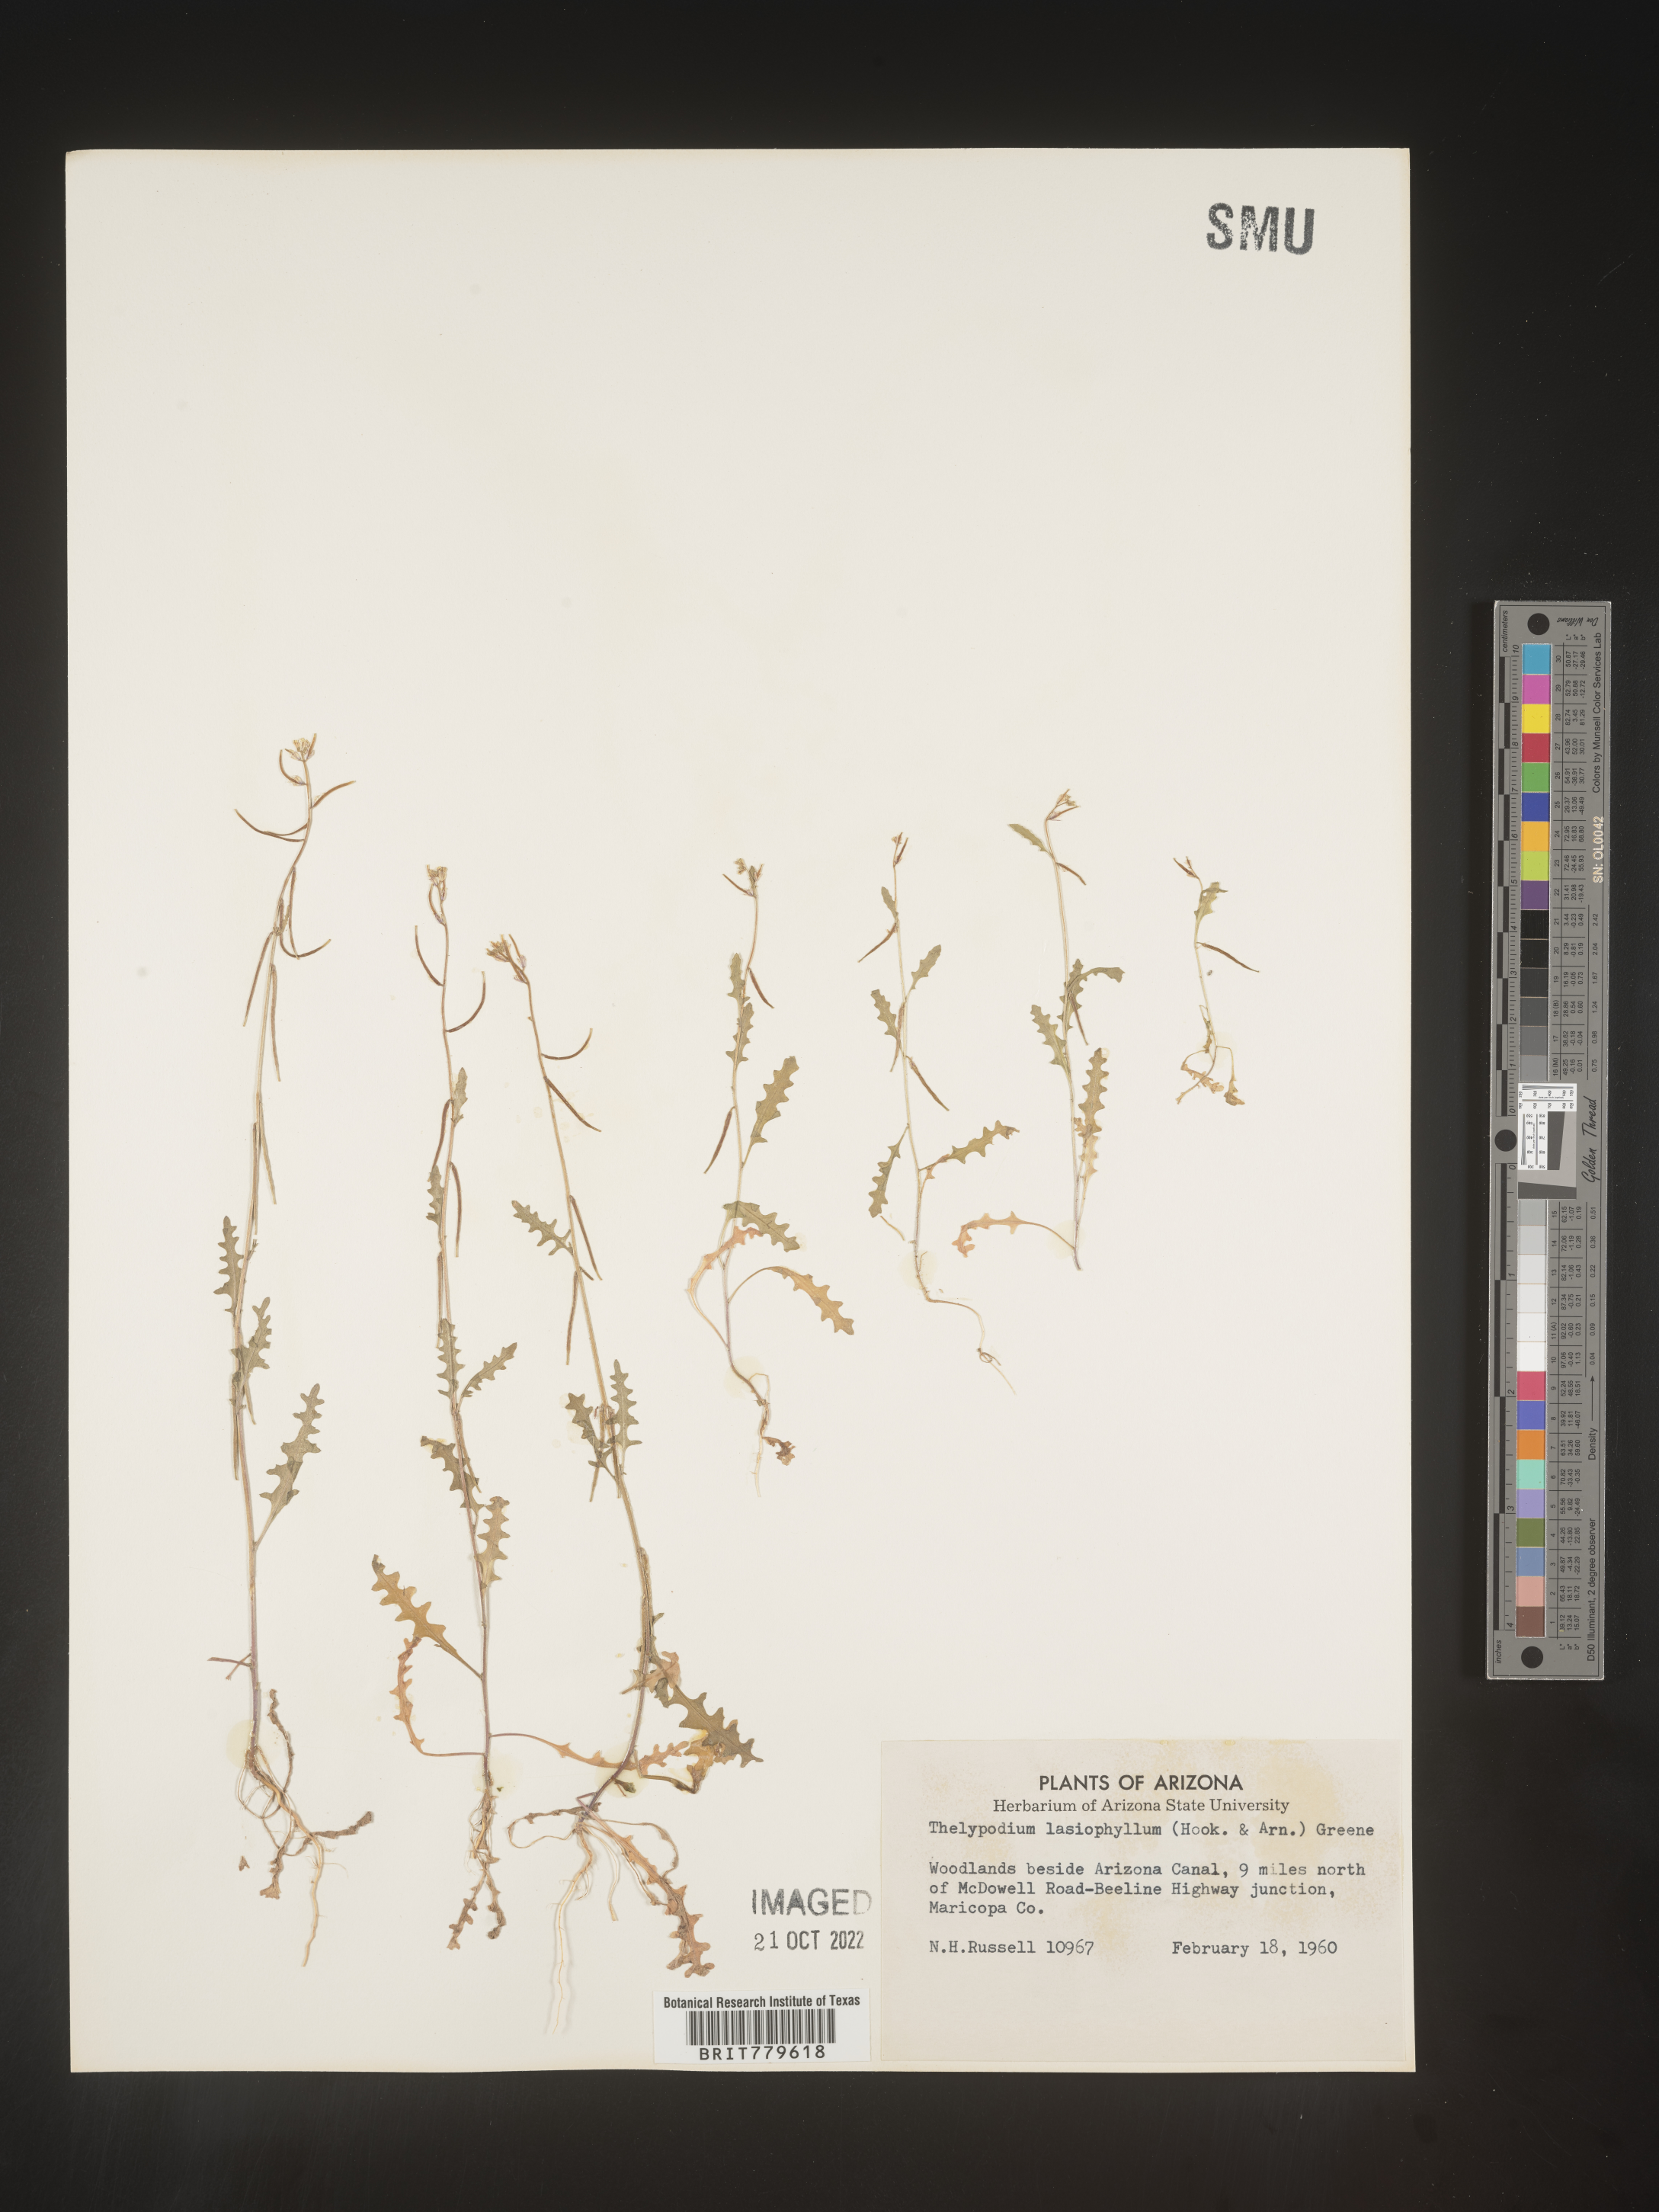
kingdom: Plantae
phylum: Tracheophyta
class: Magnoliopsida
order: Brassicales
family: Brassicaceae
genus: Thelypodium
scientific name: Thelypodium
